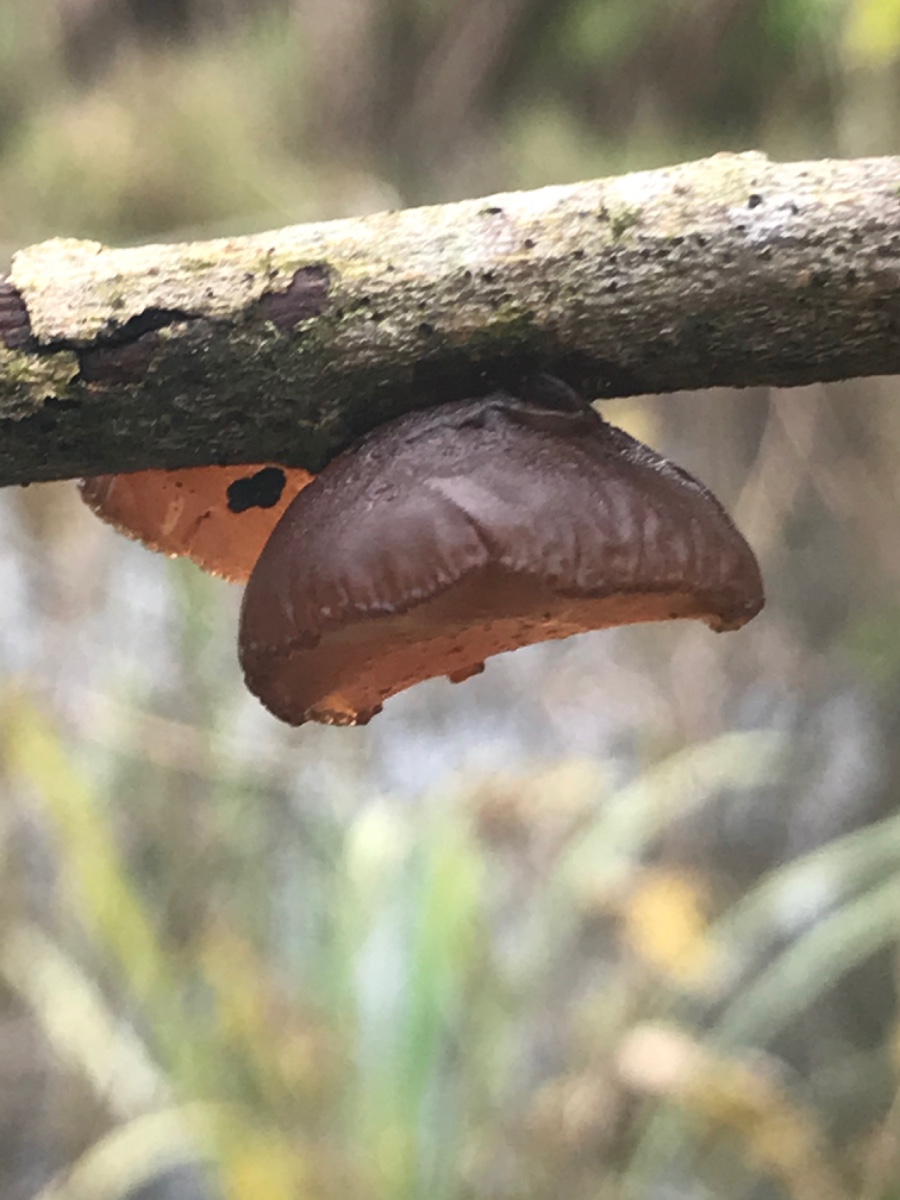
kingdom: Fungi
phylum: Basidiomycota
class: Agaricomycetes
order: Auriculariales
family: Auriculariaceae
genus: Exidia
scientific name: Exidia recisa
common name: pile-bævretop
